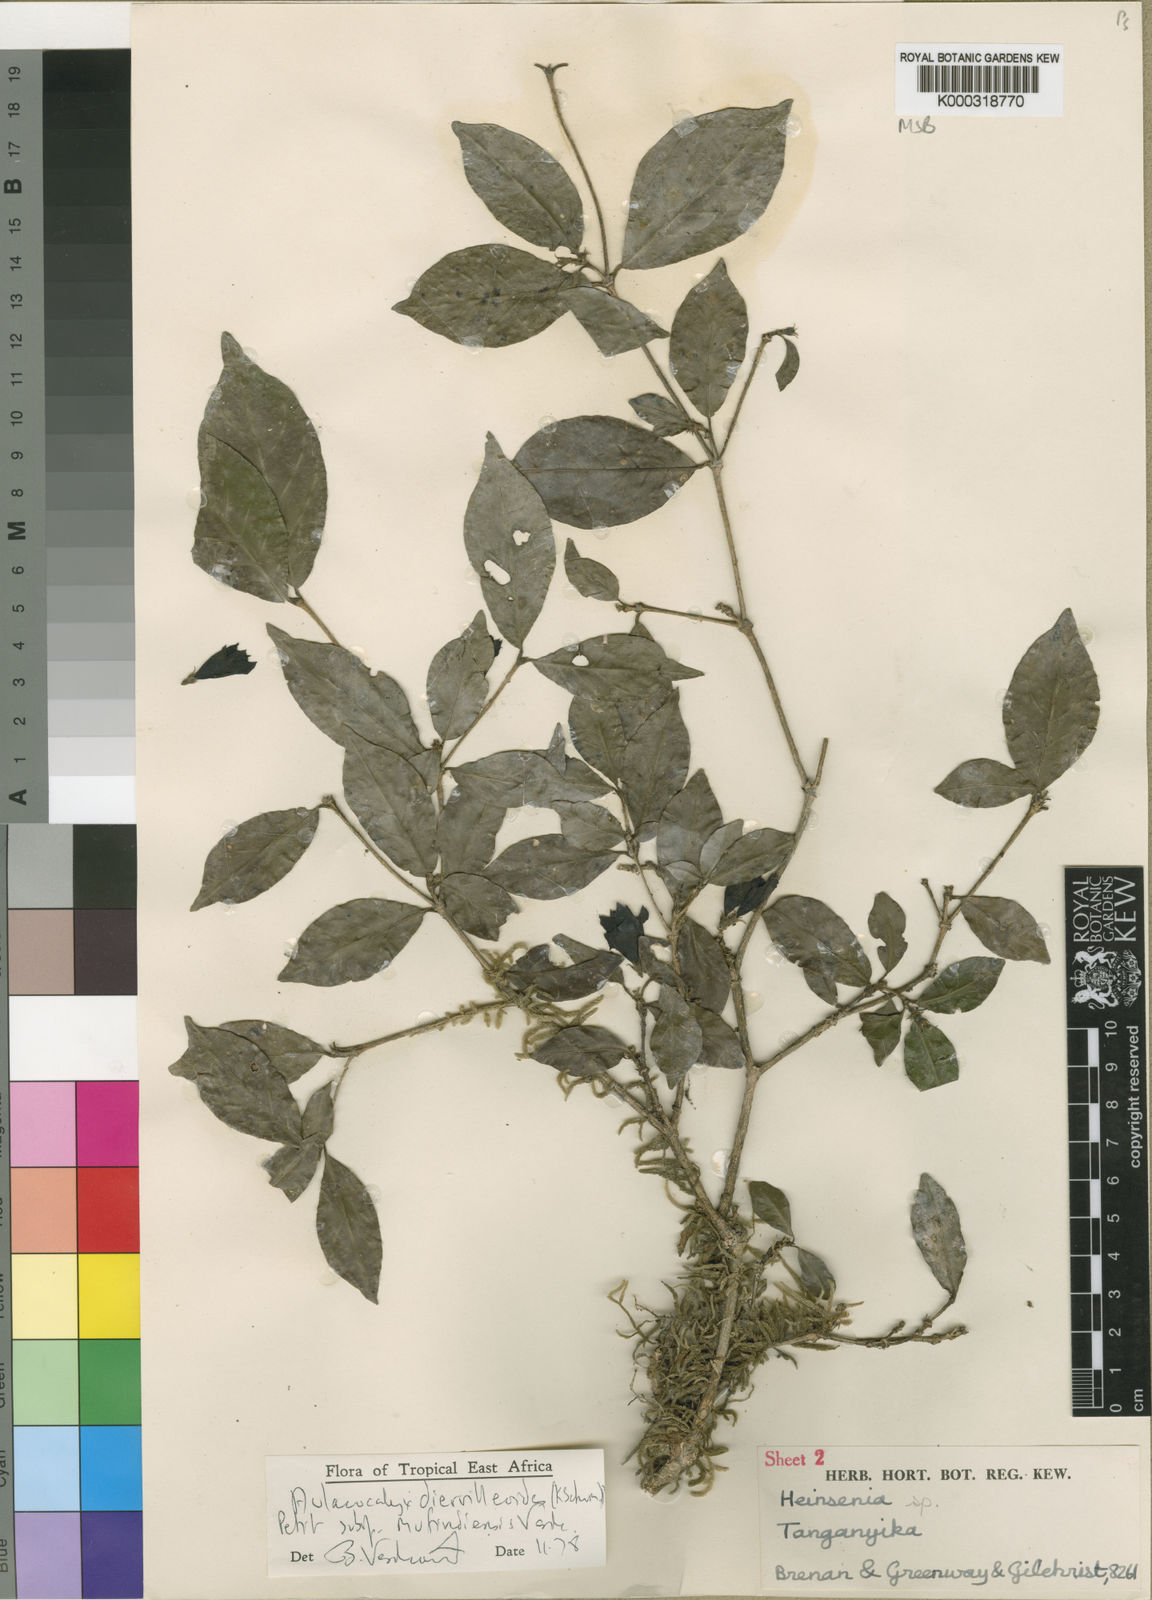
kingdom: Plantae
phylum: Tracheophyta
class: Magnoliopsida
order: Gentianales
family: Rubiaceae
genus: Heinsenia
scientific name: Heinsenia diervilleoides
